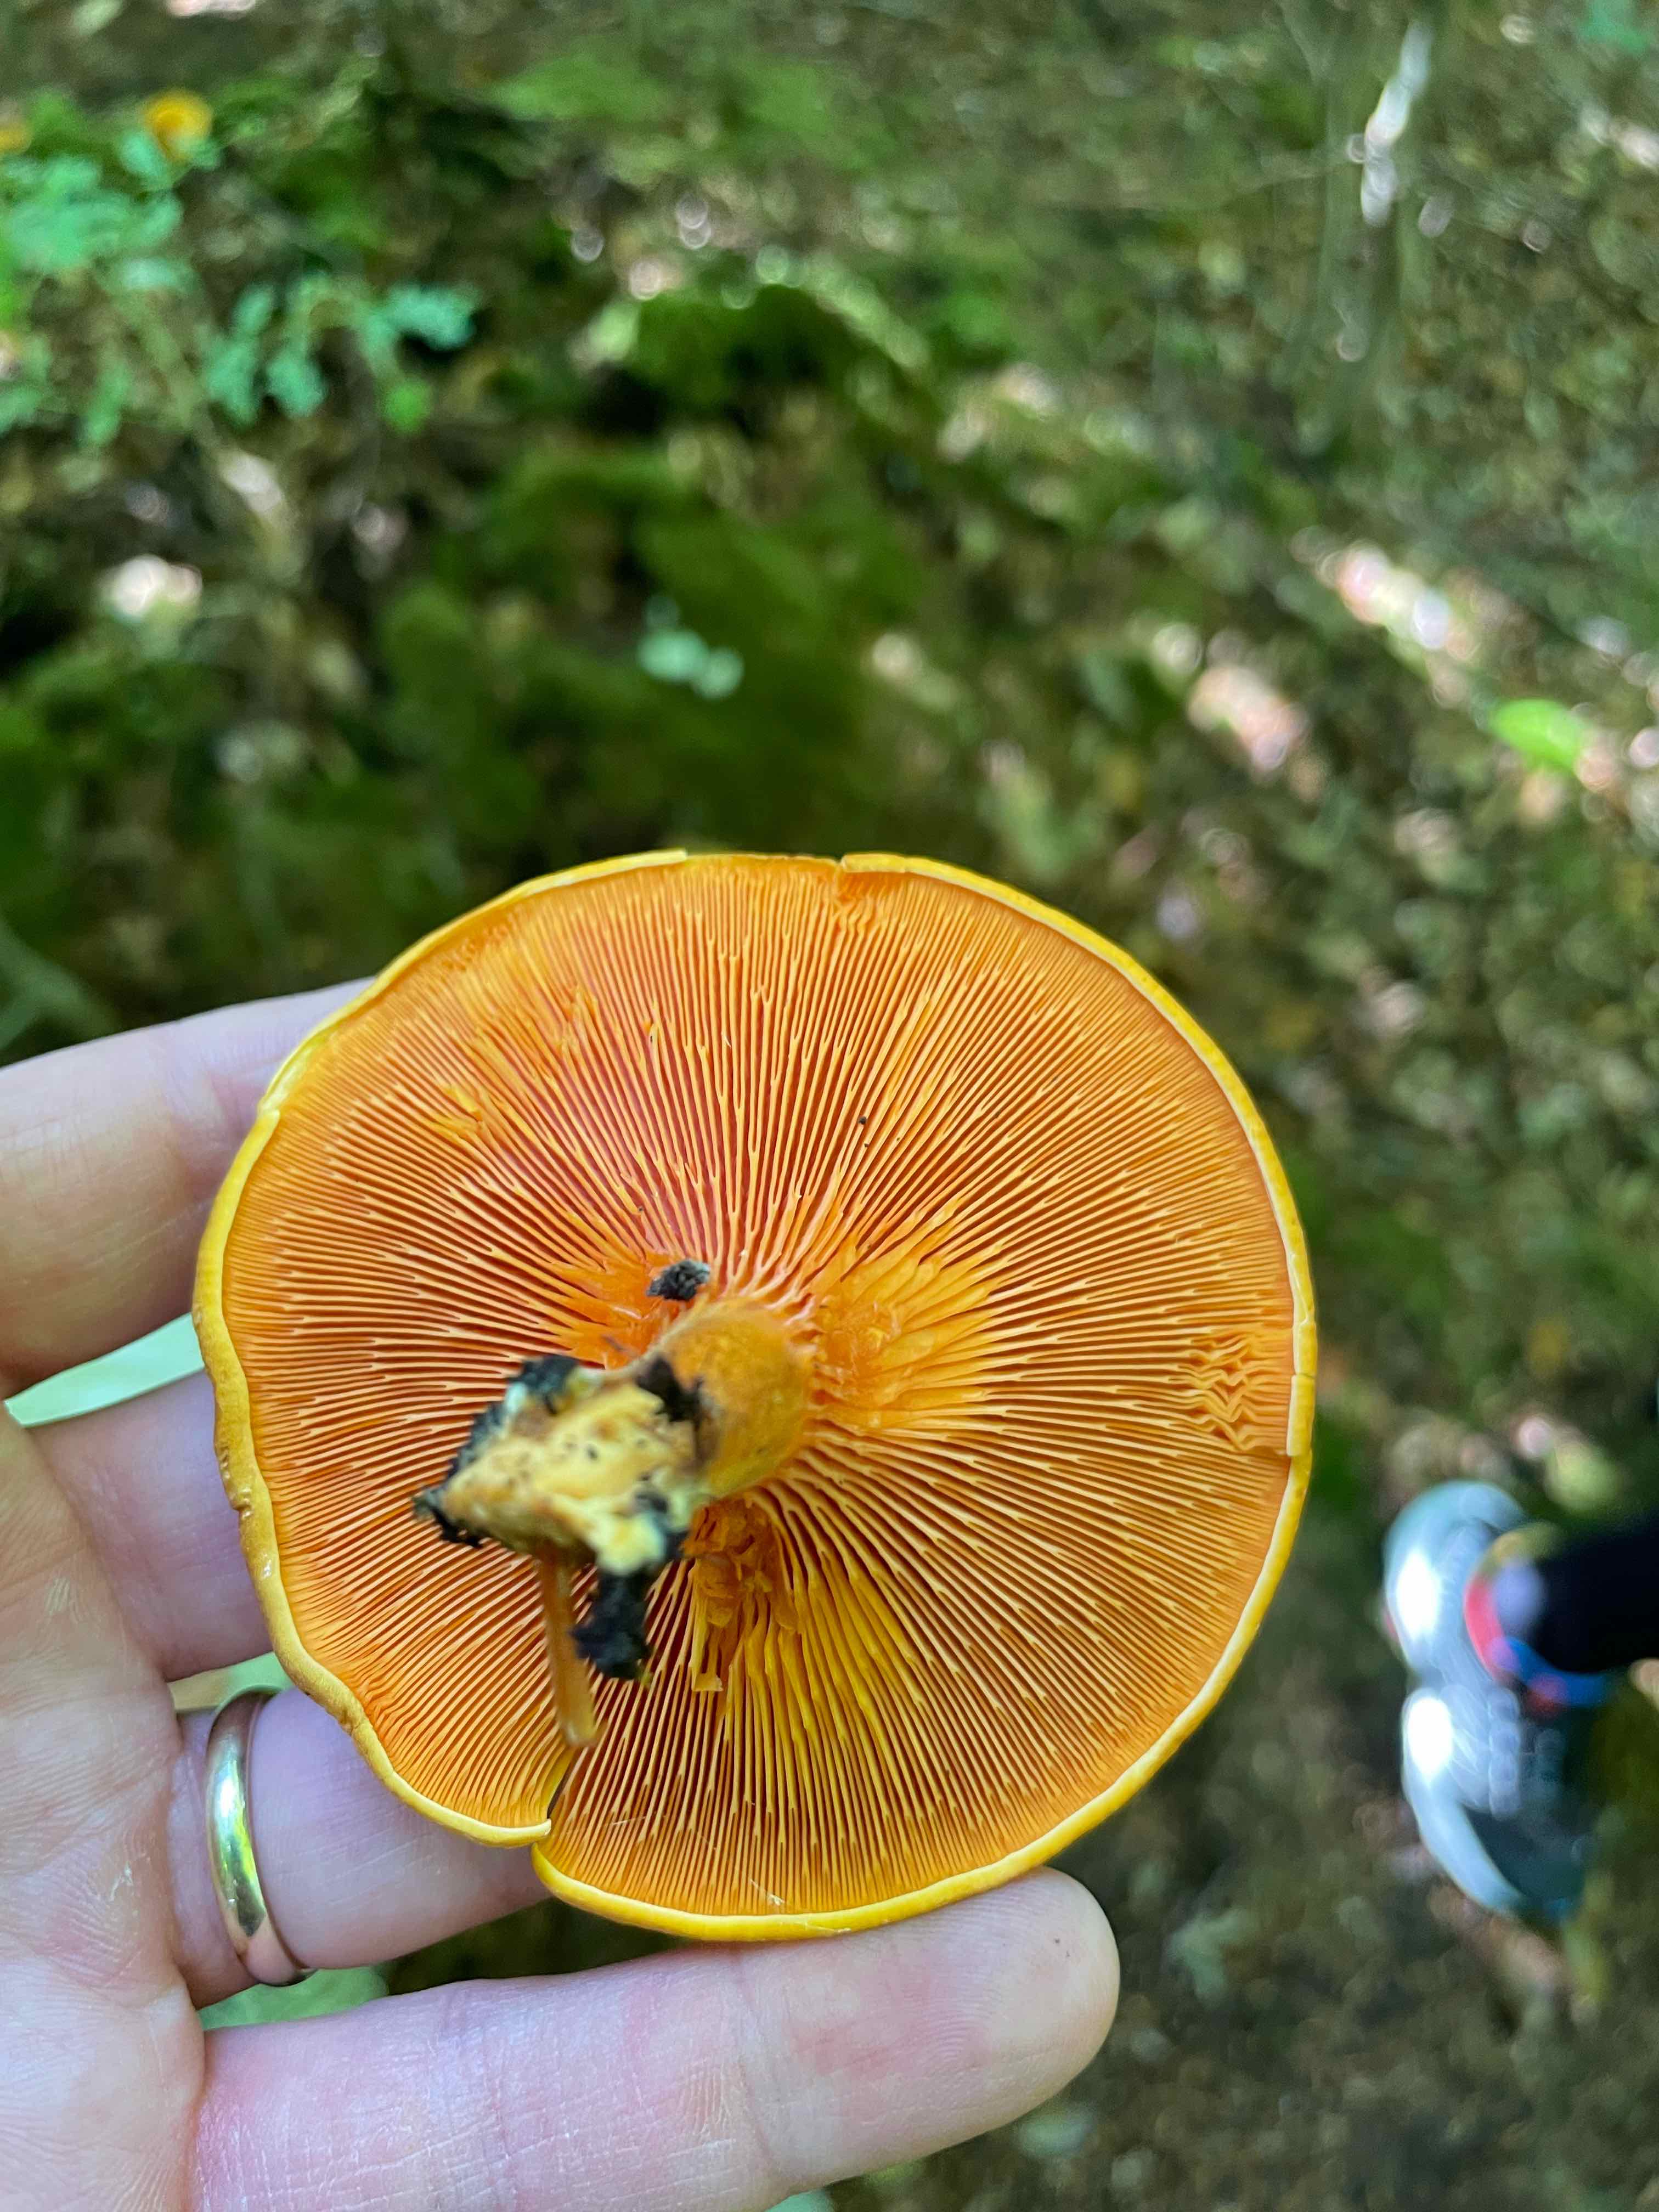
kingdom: Fungi
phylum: Basidiomycota
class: Agaricomycetes
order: Boletales
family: Hygrophoropsidaceae
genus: Hygrophoropsis
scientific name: Hygrophoropsis aurantiaca
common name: almindelig orangekantarel
